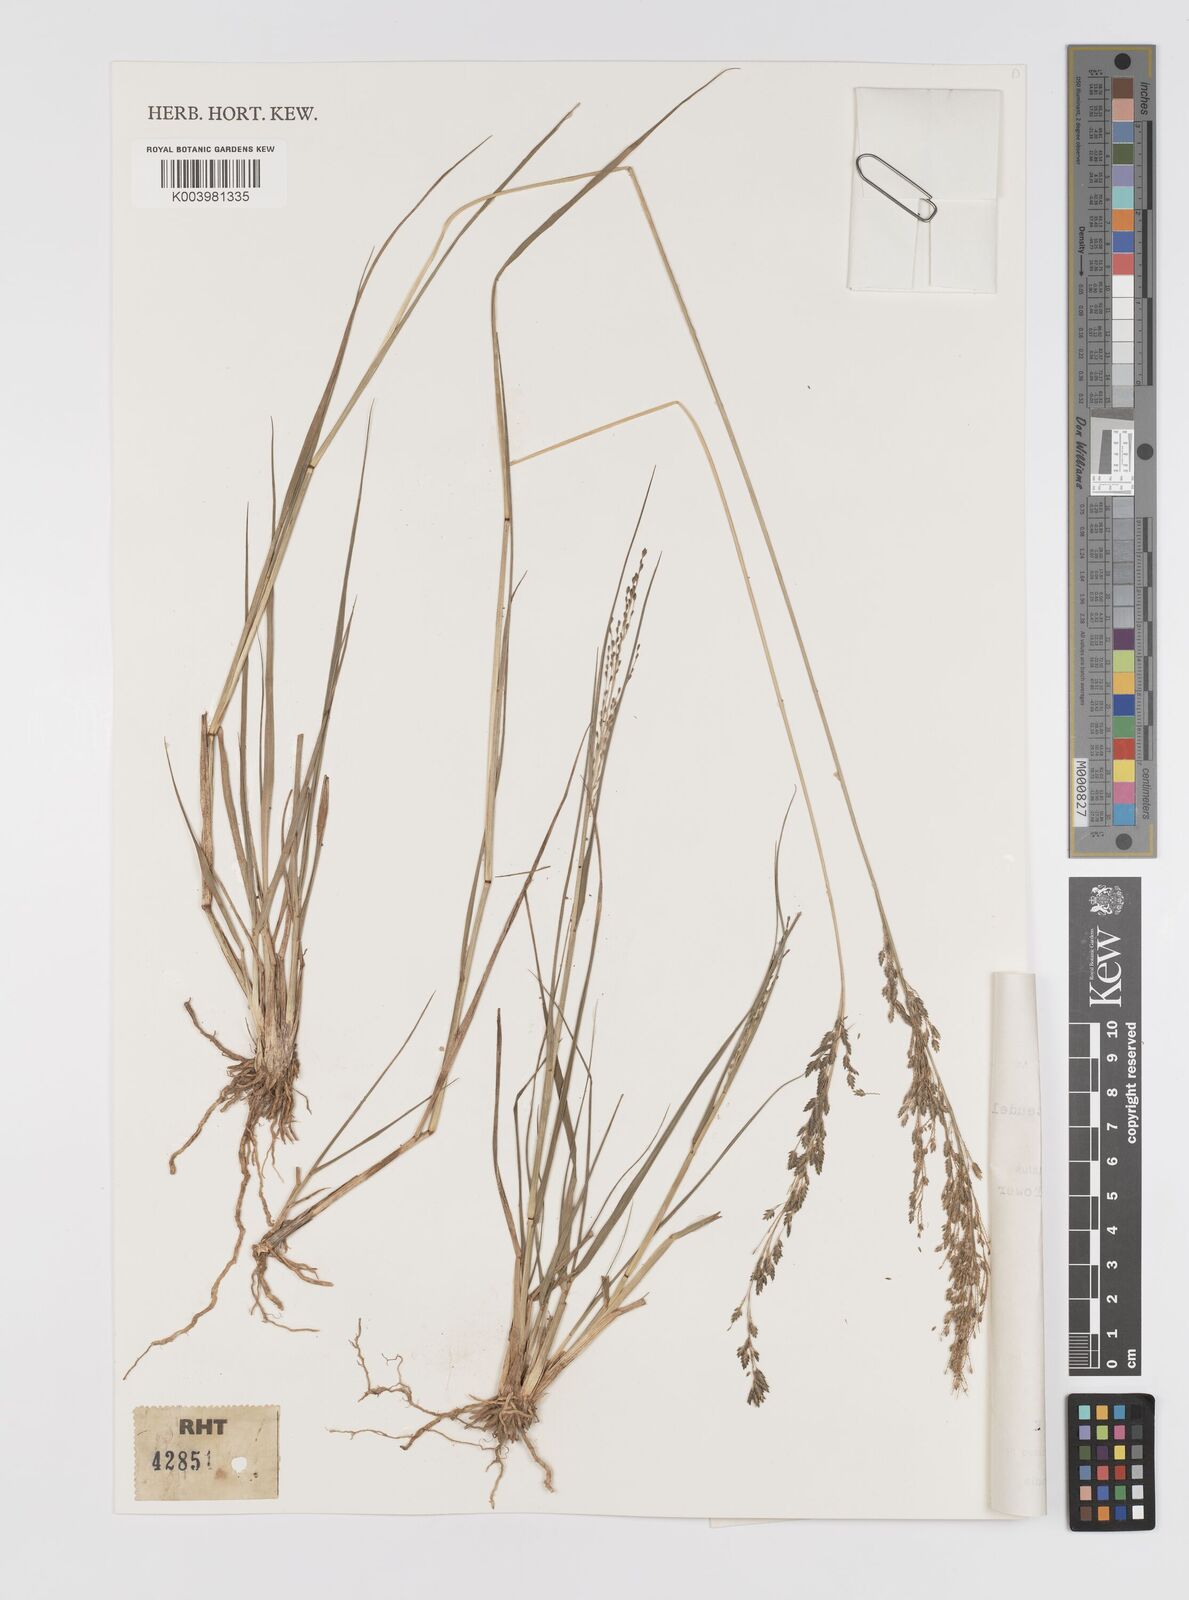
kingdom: Plantae
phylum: Tracheophyta
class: Liliopsida
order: Poales
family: Poaceae
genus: Eragrostis
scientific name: Eragrostis gangetica
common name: Slimflower lovegrass
